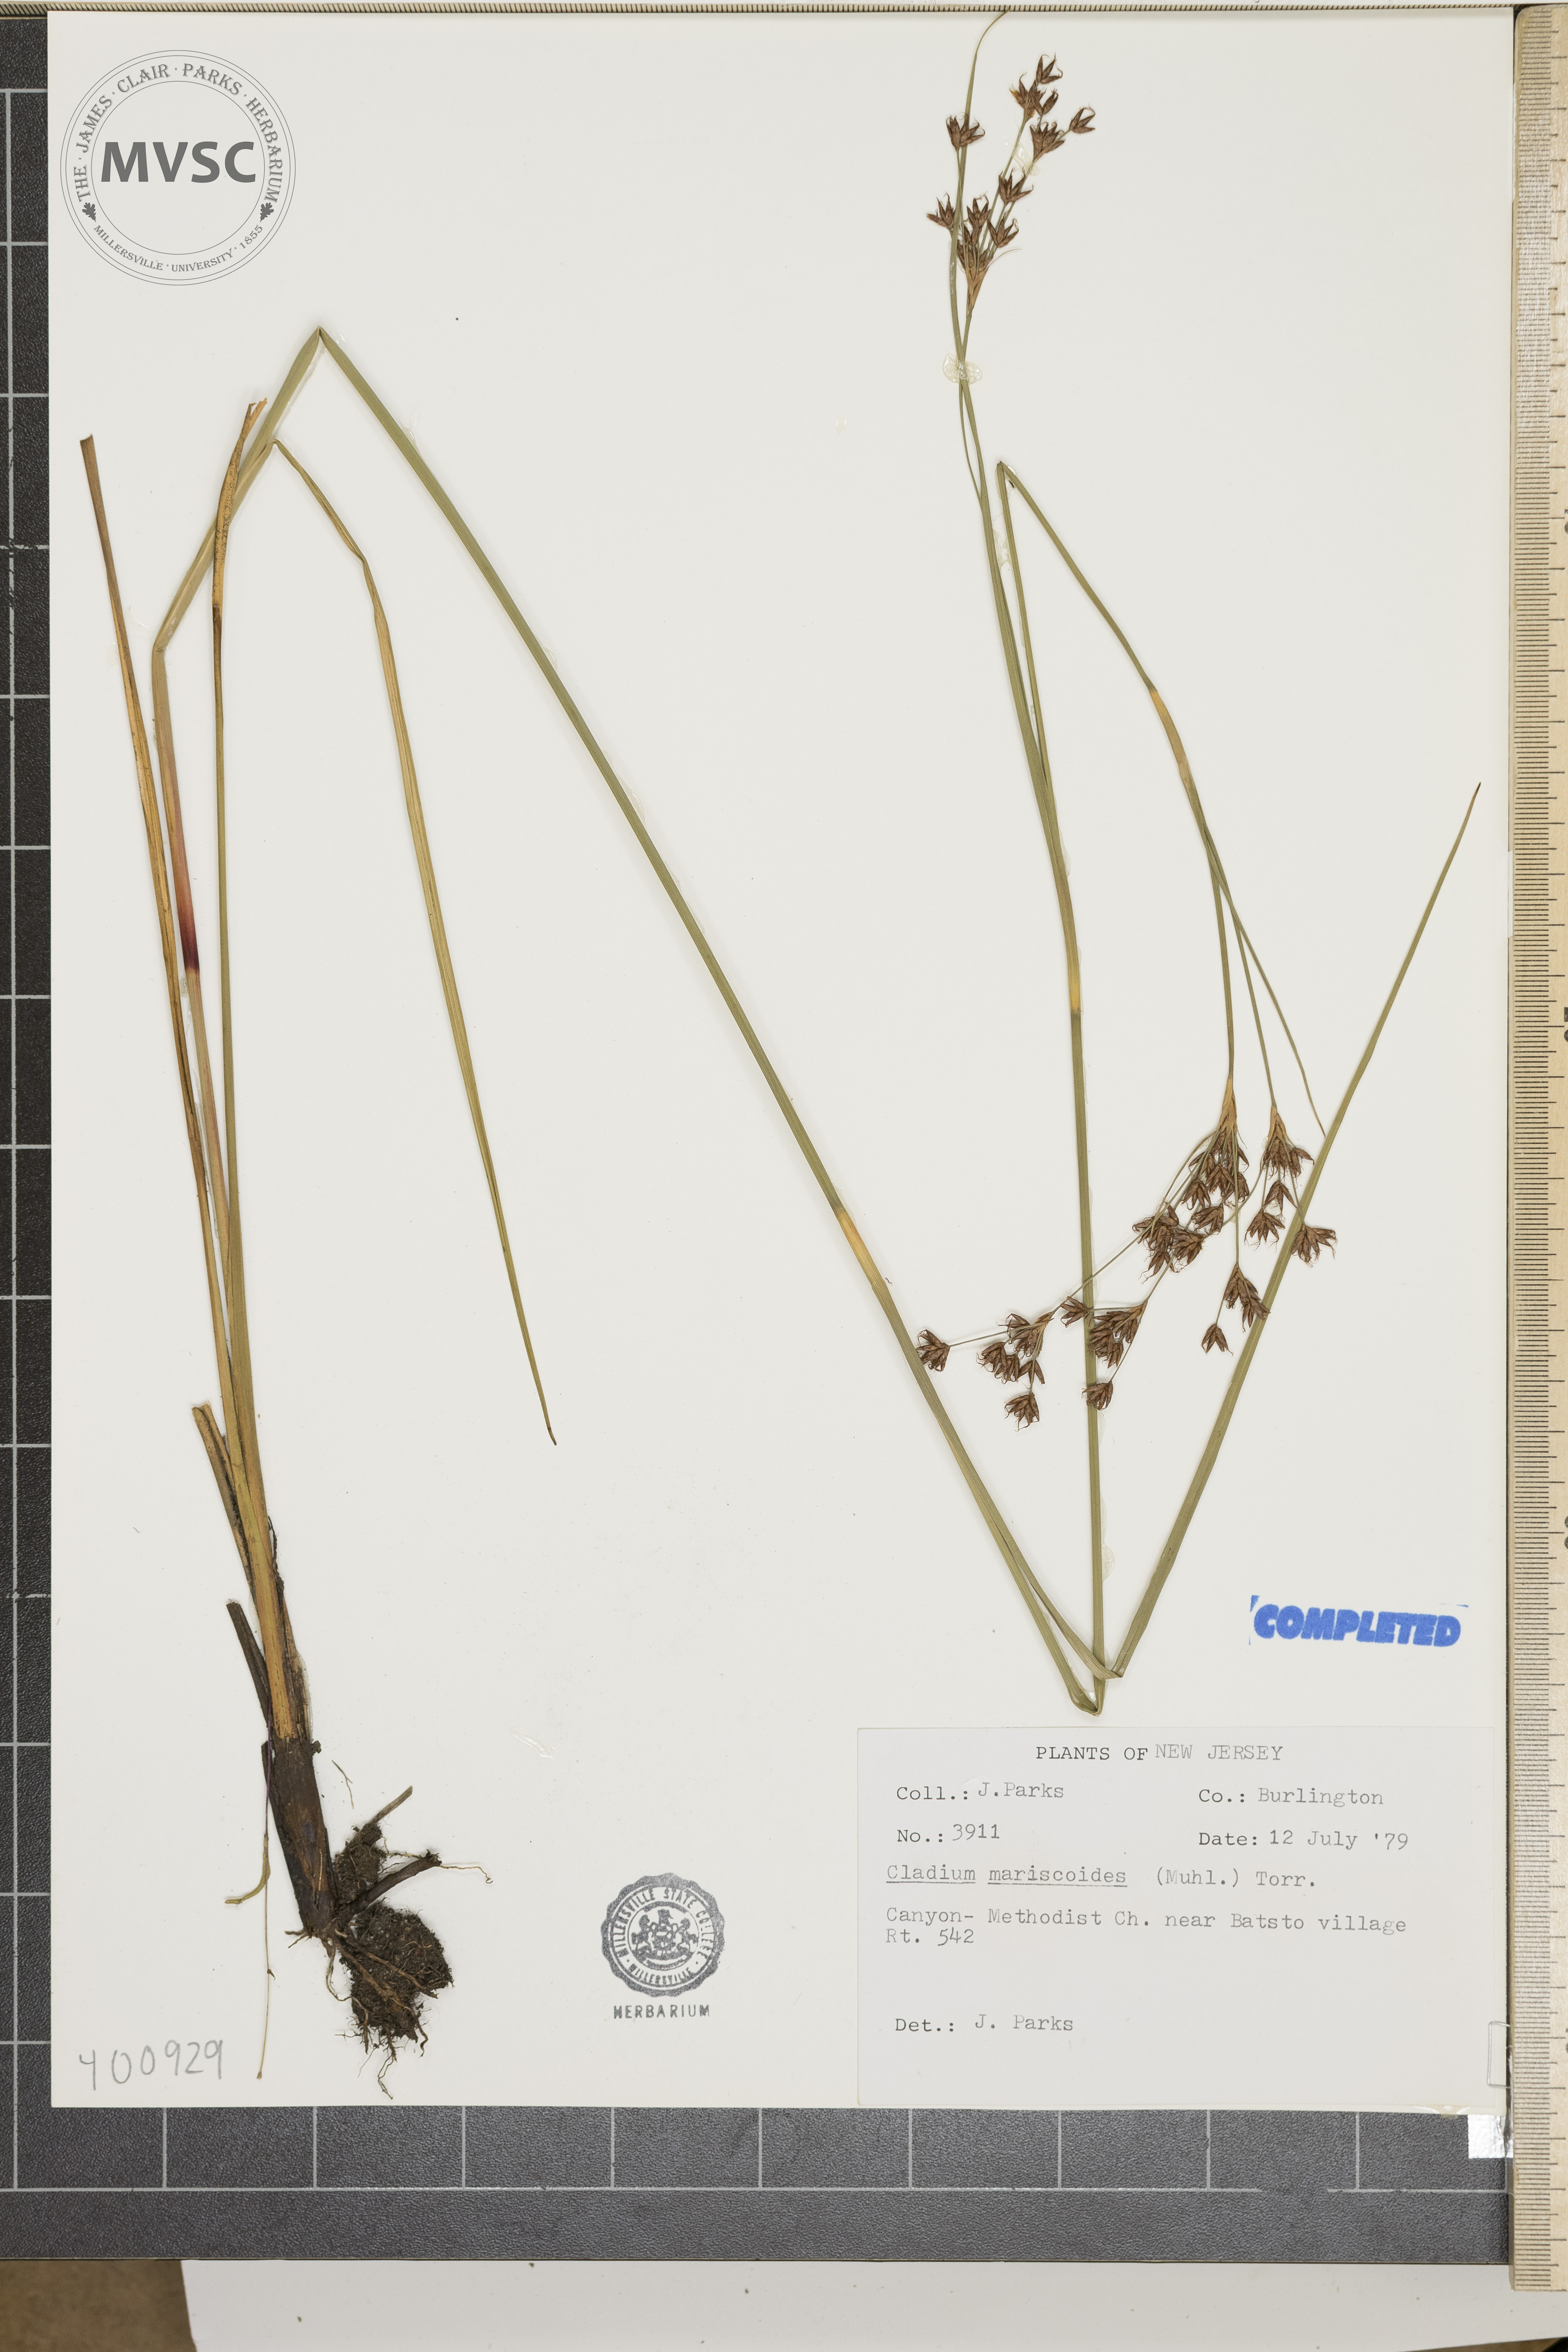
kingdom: Plantae
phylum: Tracheophyta
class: Liliopsida
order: Poales
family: Cyperaceae
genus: Cladium
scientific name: Cladium mariscoides
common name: smooth sawgrass
